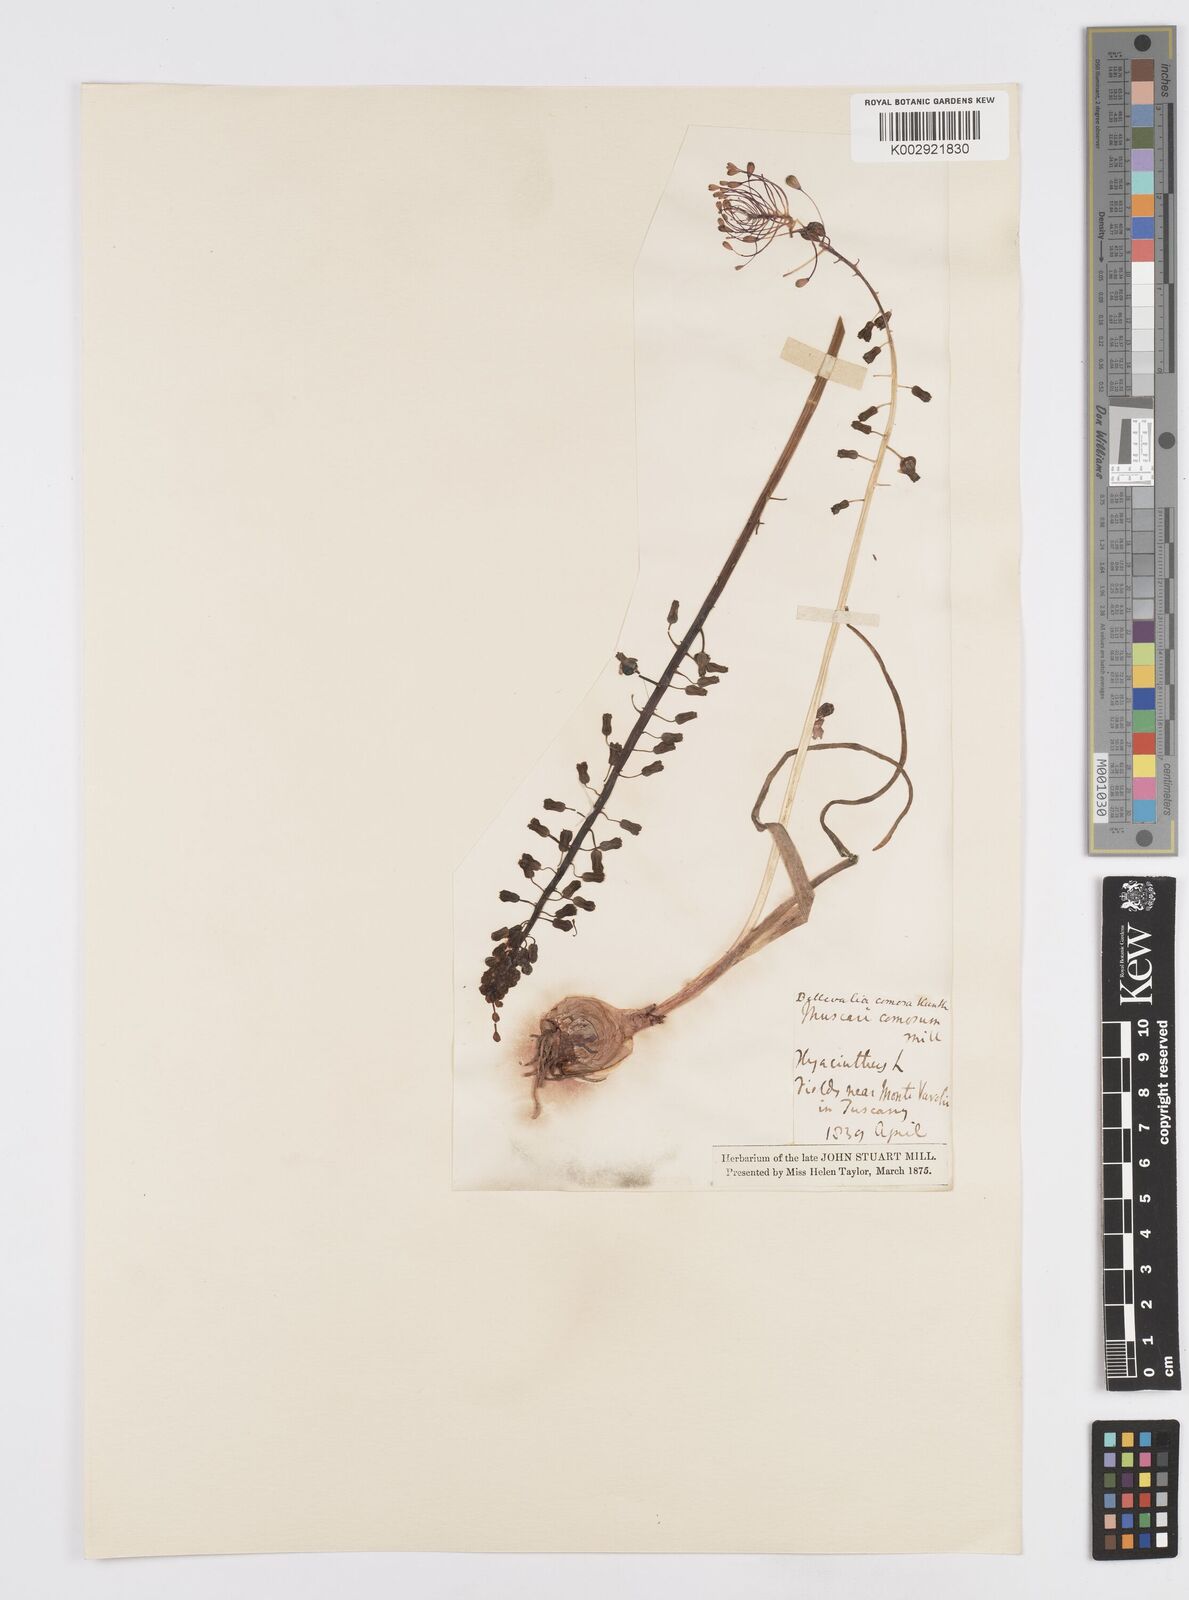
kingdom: Plantae
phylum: Tracheophyta
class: Liliopsida
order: Asparagales
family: Asparagaceae
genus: Muscari
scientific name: Muscari comosum
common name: Tassel hyacinth
